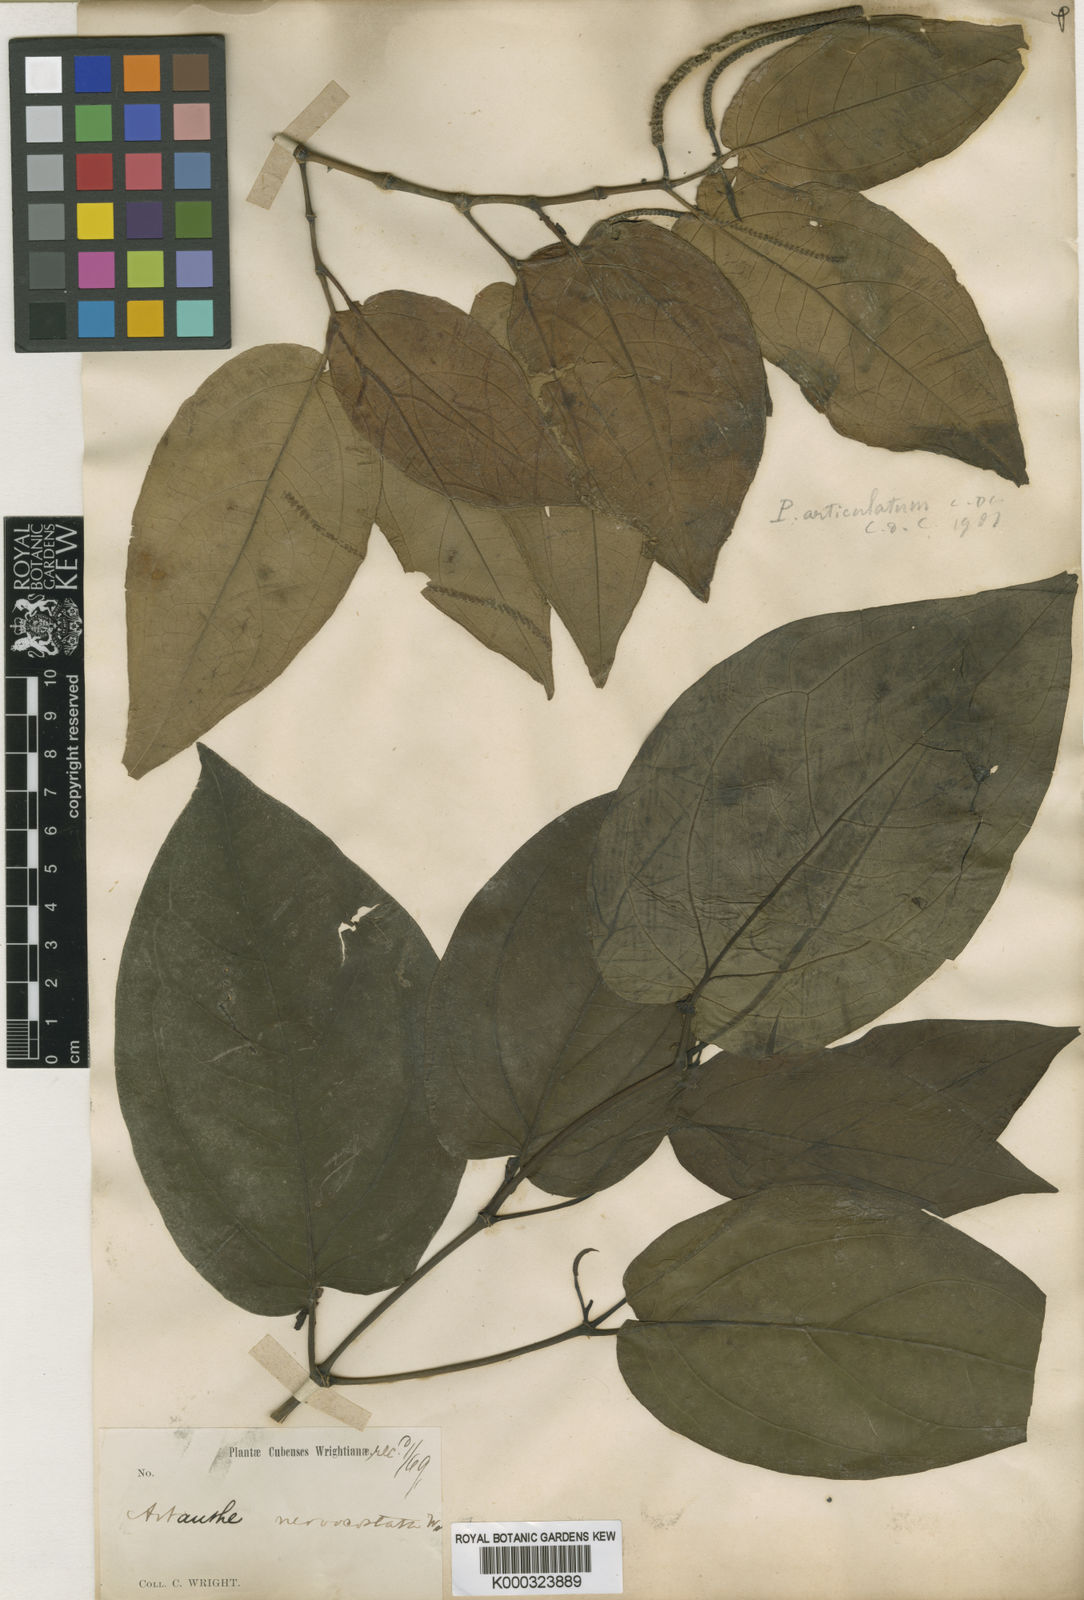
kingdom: Plantae
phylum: Tracheophyta
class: Magnoliopsida
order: Piperales
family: Piperaceae
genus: Piper
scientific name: Piper
